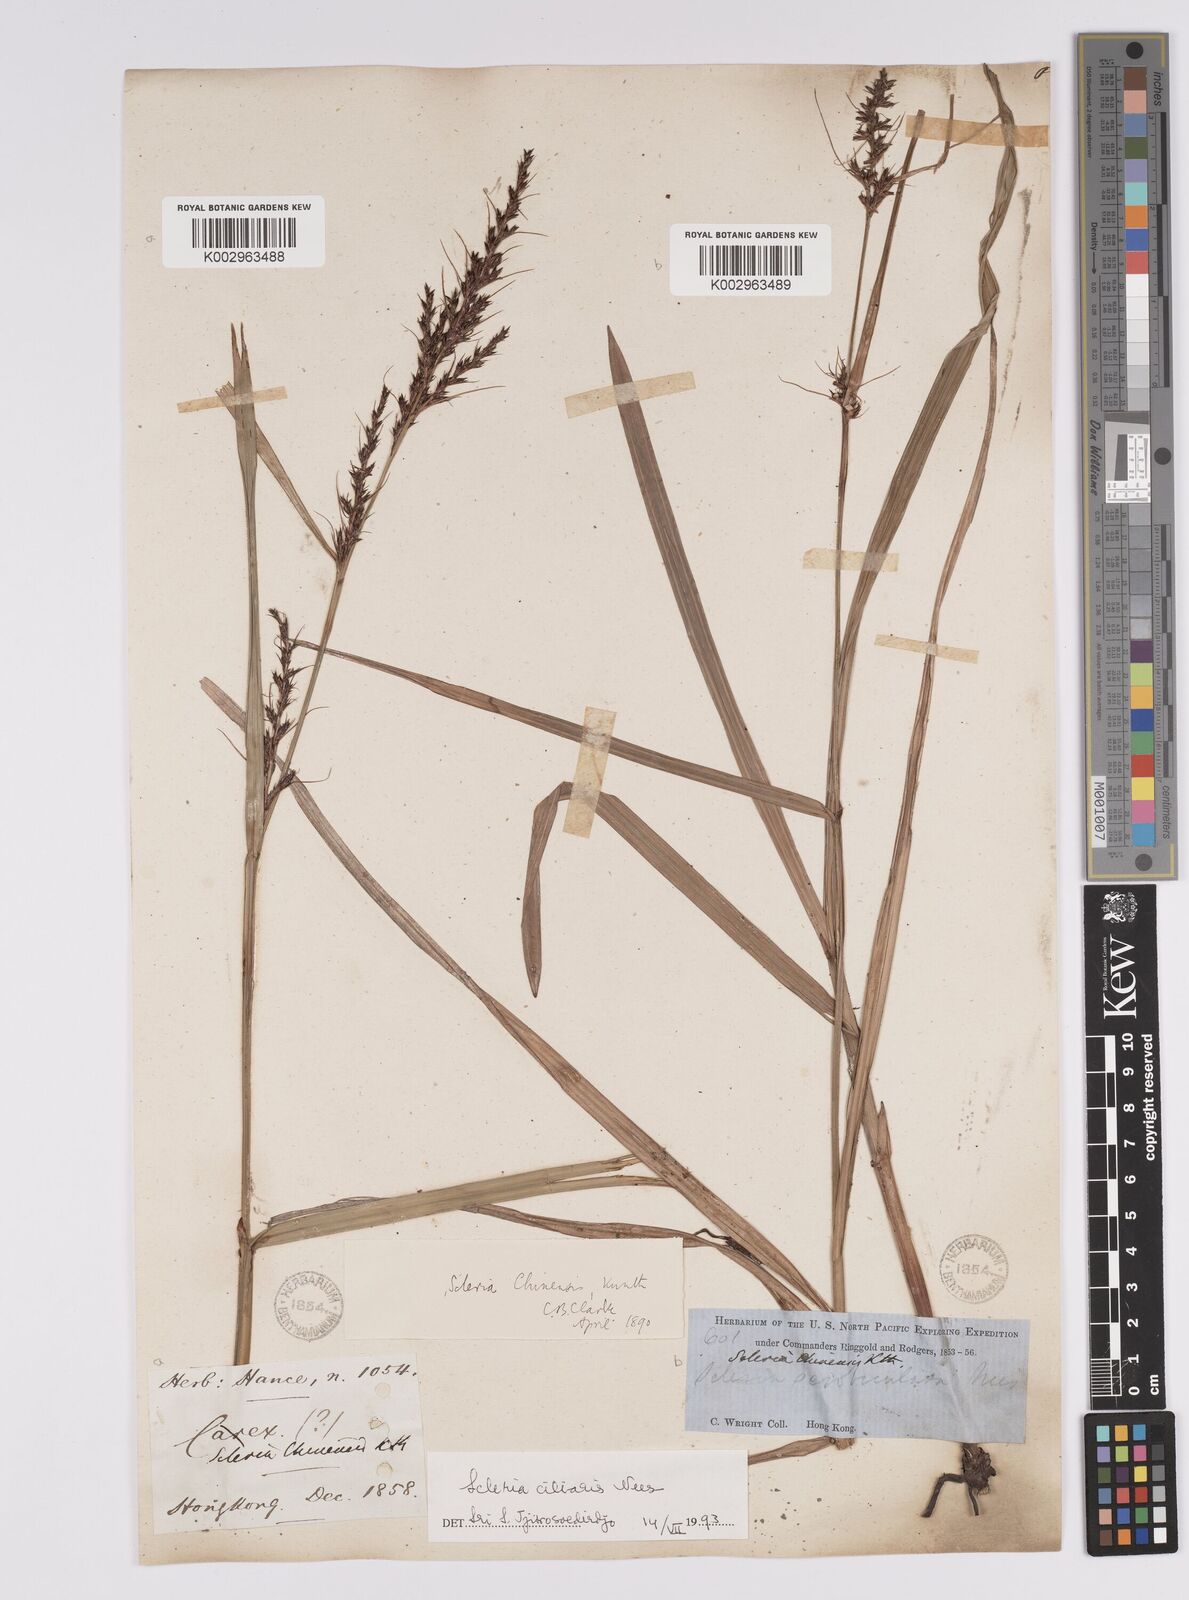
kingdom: Plantae
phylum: Tracheophyta
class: Liliopsida
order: Poales
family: Cyperaceae
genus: Scleria
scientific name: Scleria ciliaris
